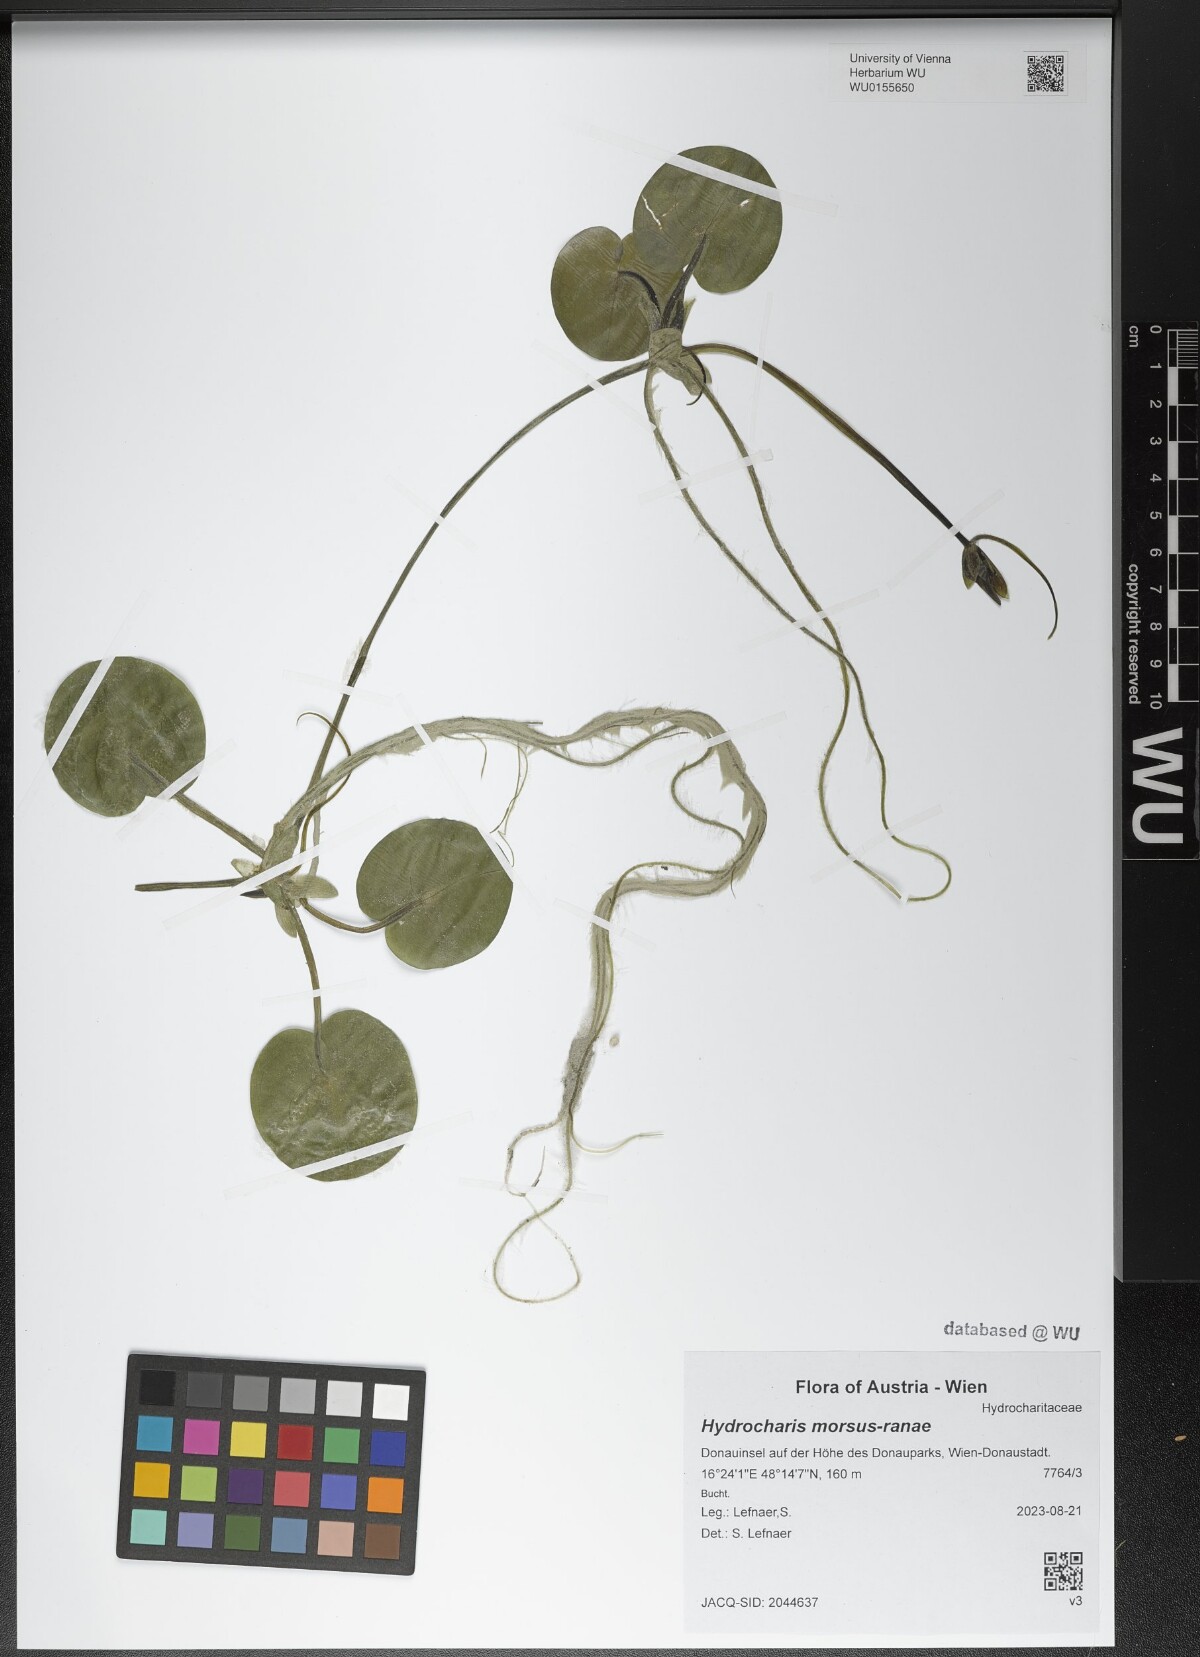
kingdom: Plantae
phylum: Tracheophyta
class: Liliopsida
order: Alismatales
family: Hydrocharitaceae
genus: Hydrocharis
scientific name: Hydrocharis morsus-ranae
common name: Frogbit
